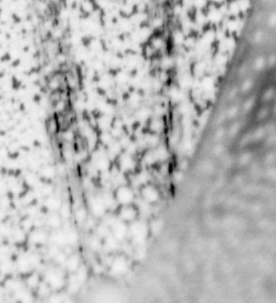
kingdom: Animalia
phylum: Chordata
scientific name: Chordata
